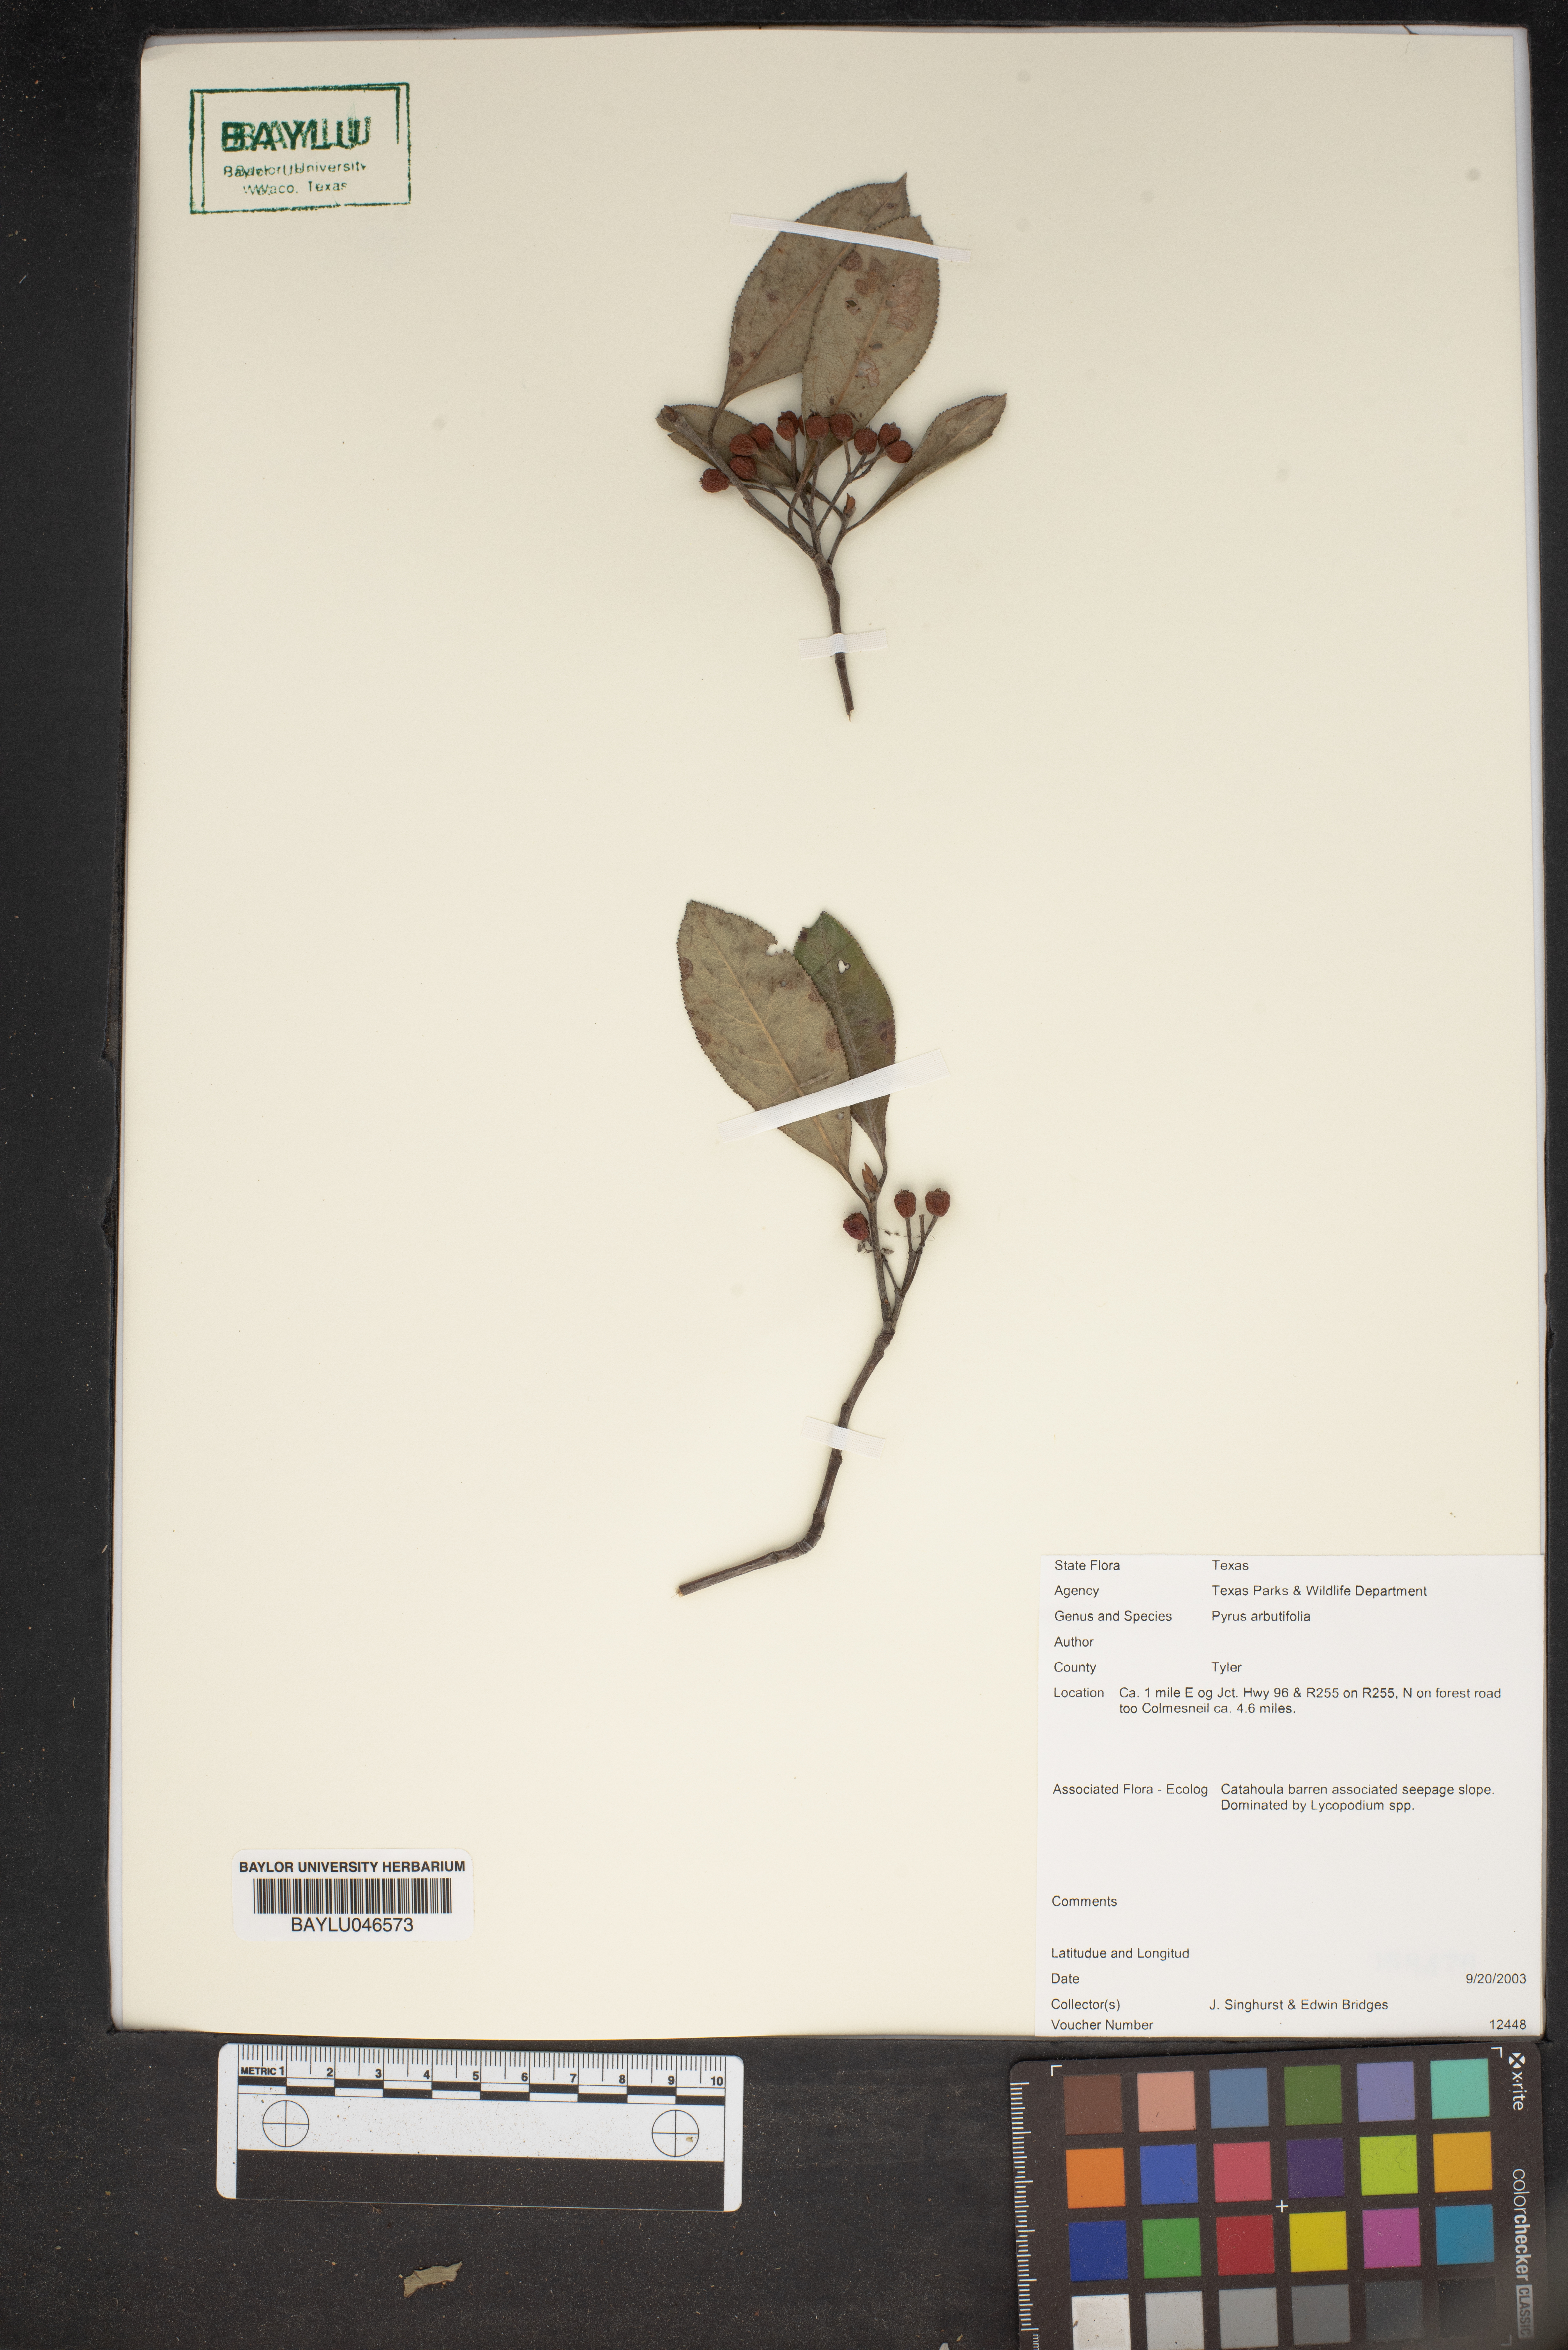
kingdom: Plantae
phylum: Tracheophyta
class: Magnoliopsida
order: Rosales
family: Rosaceae
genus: Aronia
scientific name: Aronia arbutifolia
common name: Red chokeberry
